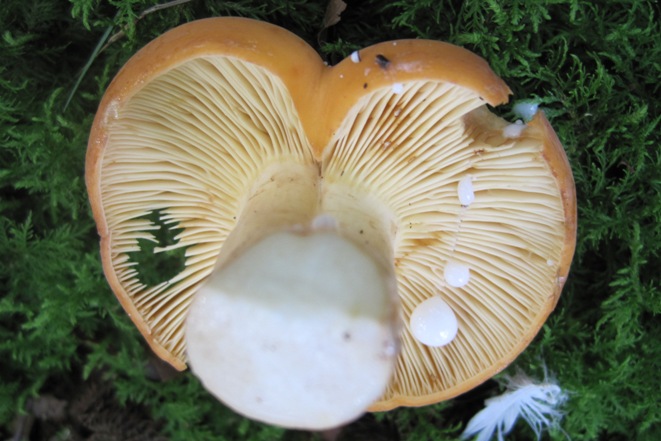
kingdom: Fungi
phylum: Basidiomycota
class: Agaricomycetes
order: Russulales
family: Russulaceae
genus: Lactifluus
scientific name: Lactifluus volemus
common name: spiselig mælkehat
